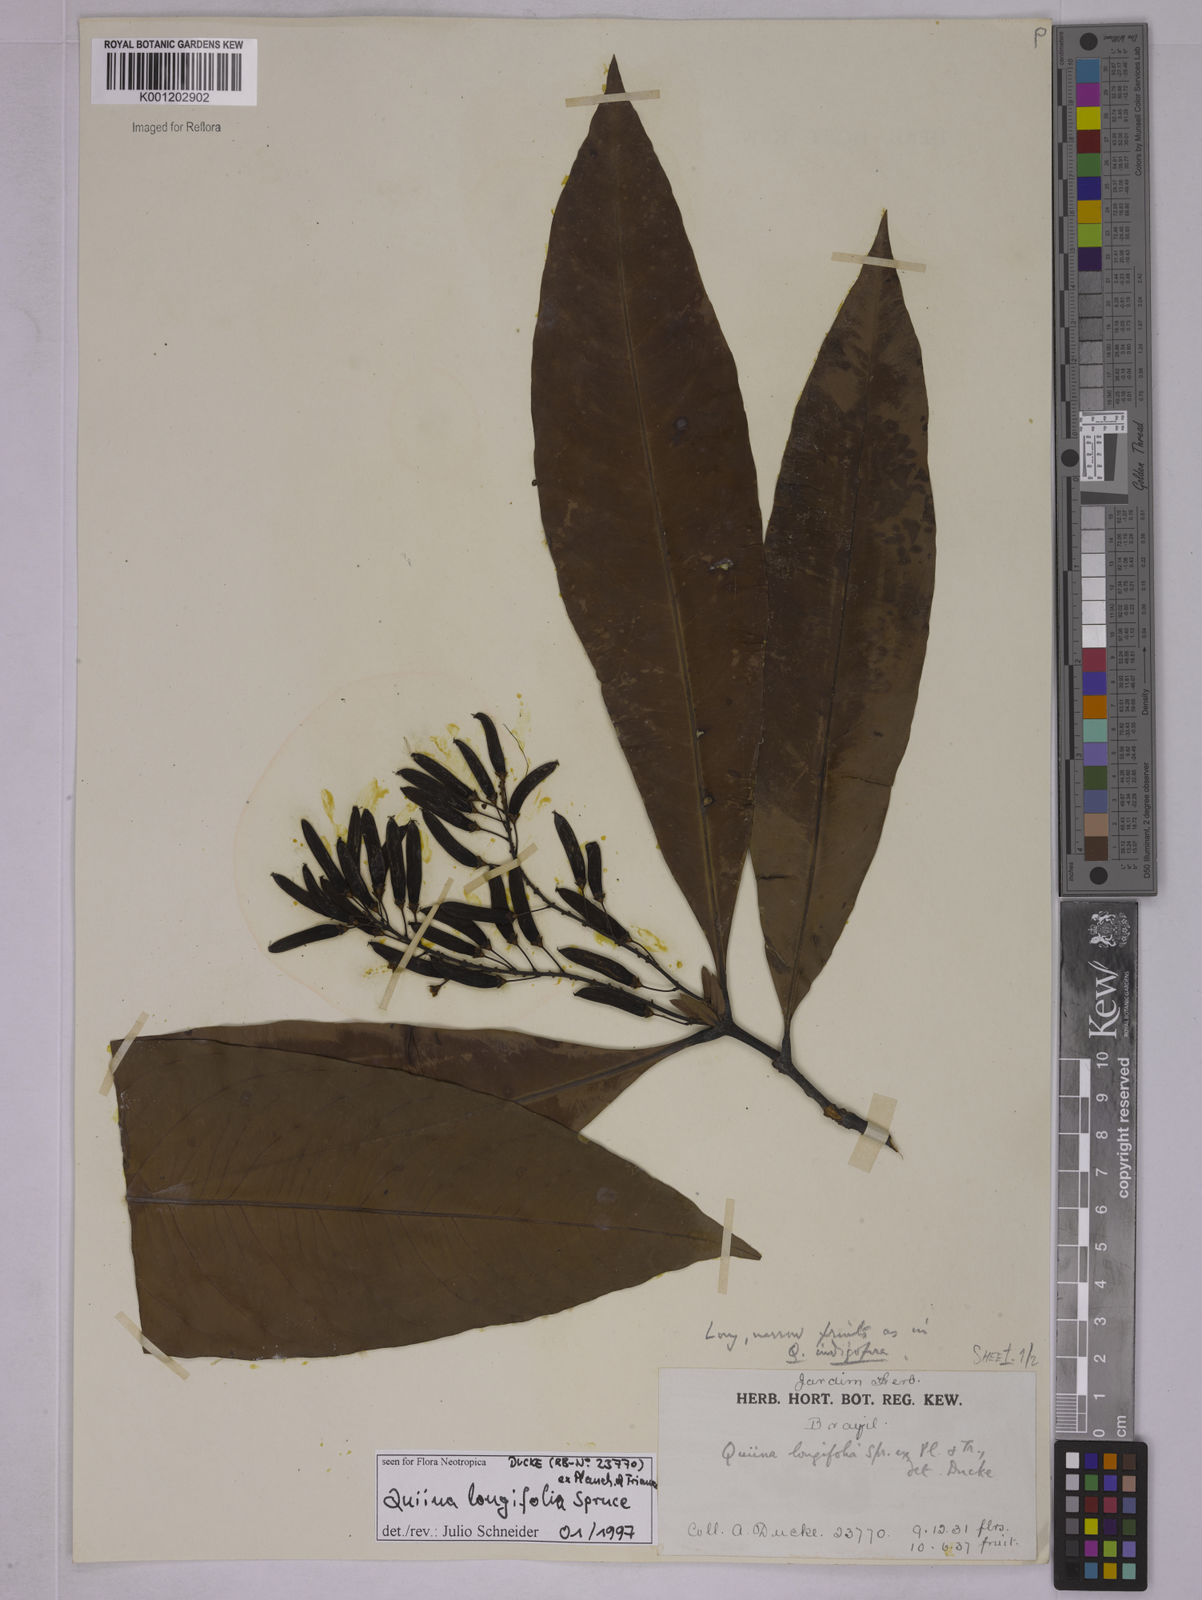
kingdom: Plantae
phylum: Tracheophyta
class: Magnoliopsida
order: Malpighiales
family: Quiinaceae
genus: Quiina
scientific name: Quiina florida
